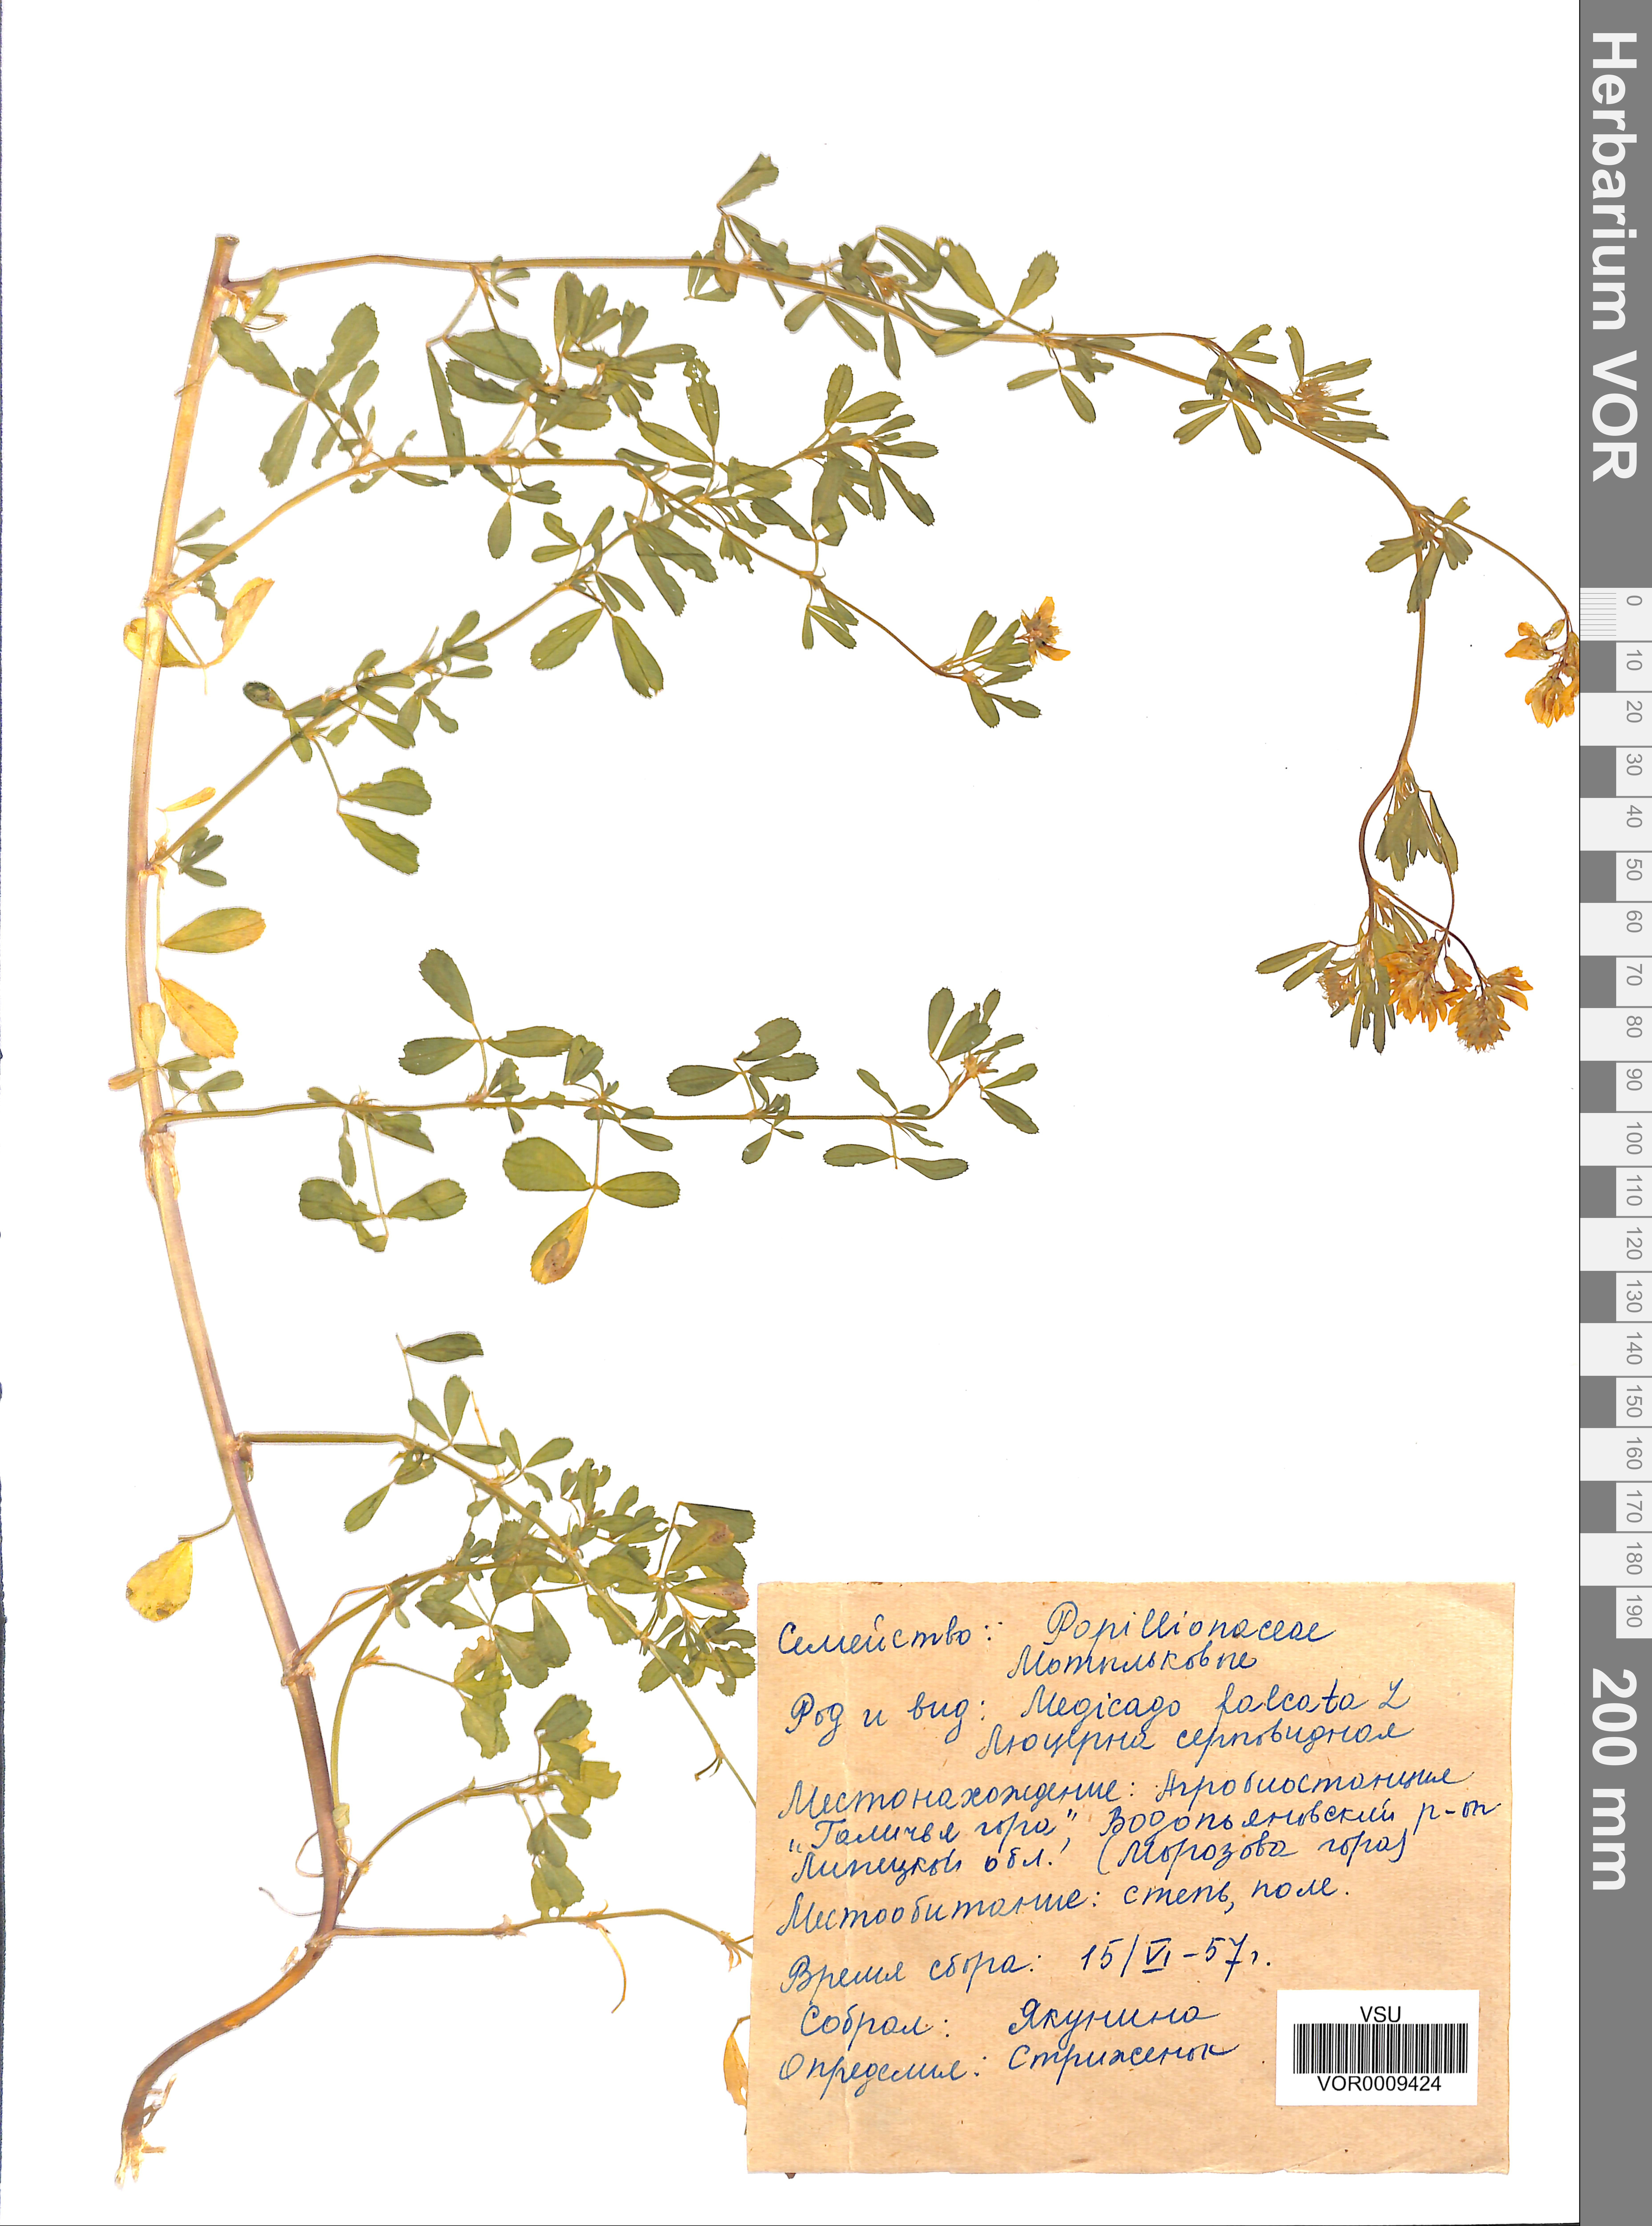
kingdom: Plantae
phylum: Tracheophyta
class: Magnoliopsida
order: Fabales
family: Fabaceae
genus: Medicago
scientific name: Medicago falcata
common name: Sickle medick
